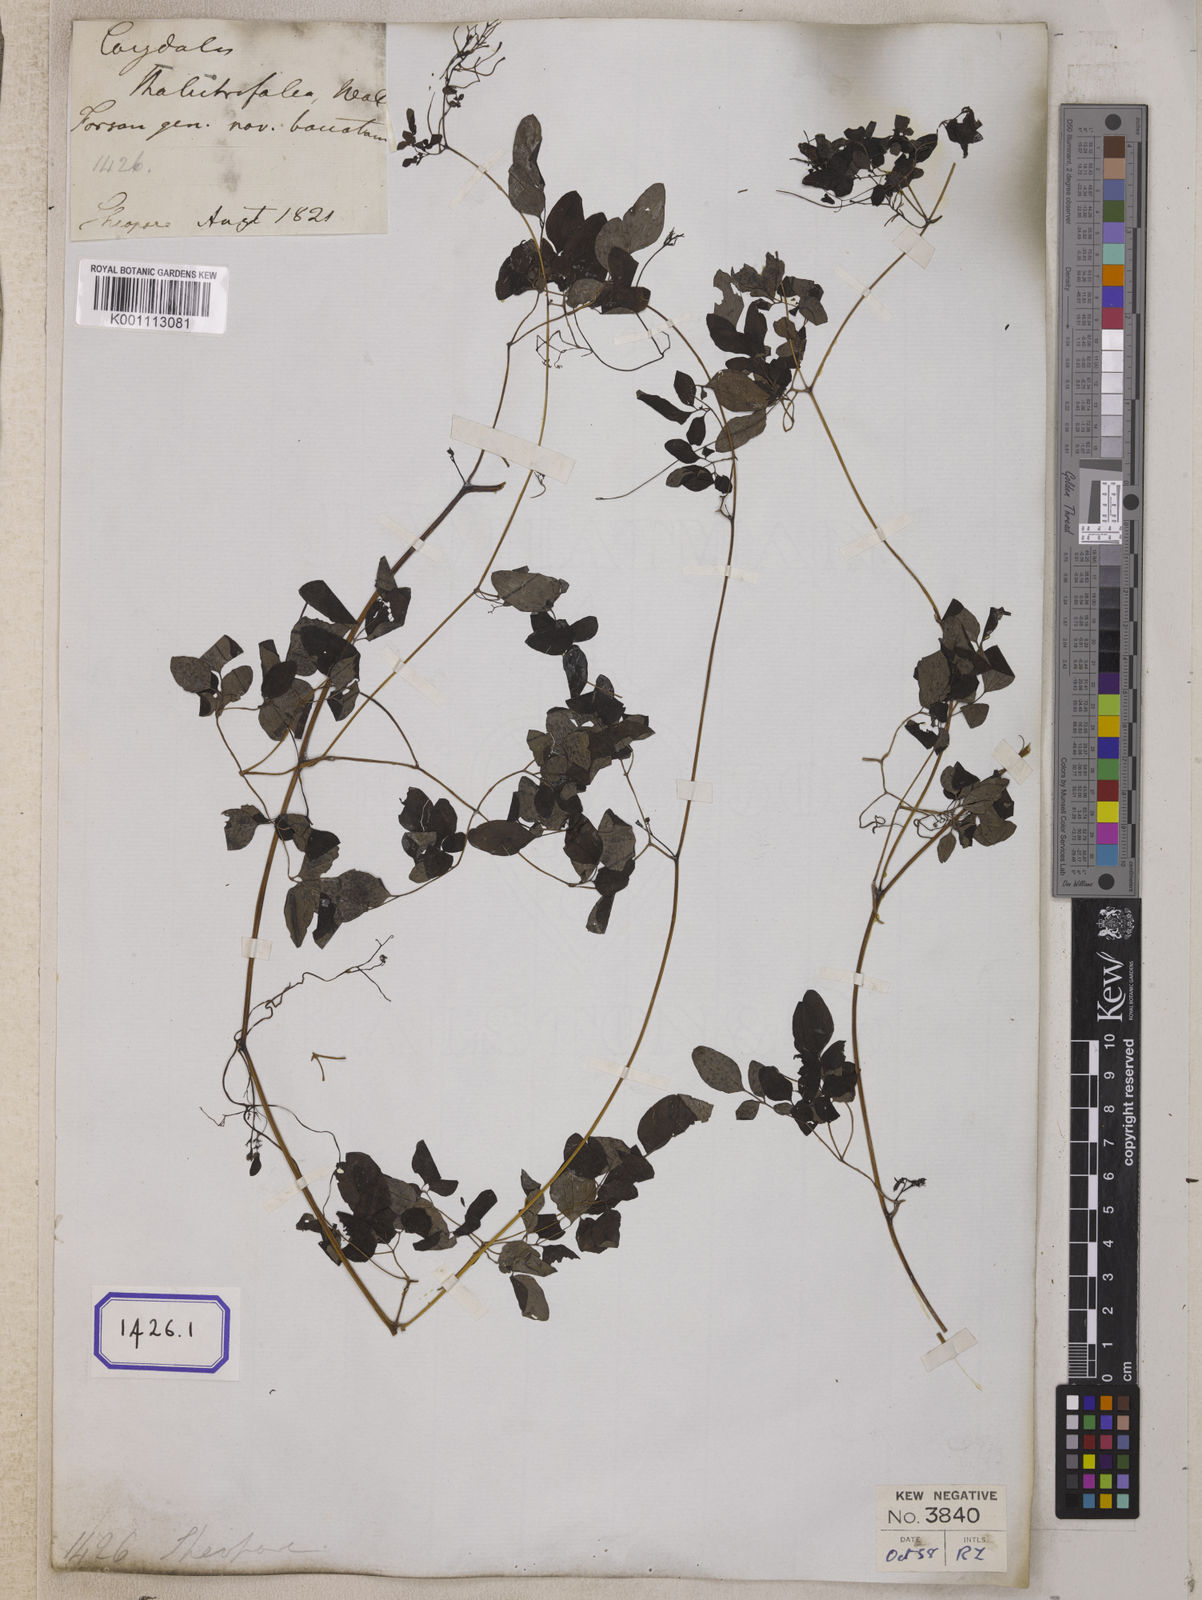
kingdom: Plantae
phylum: Tracheophyta
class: Magnoliopsida
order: Ranunculales
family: Papaveraceae
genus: Dactylicapnos
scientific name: Dactylicapnos scandens
